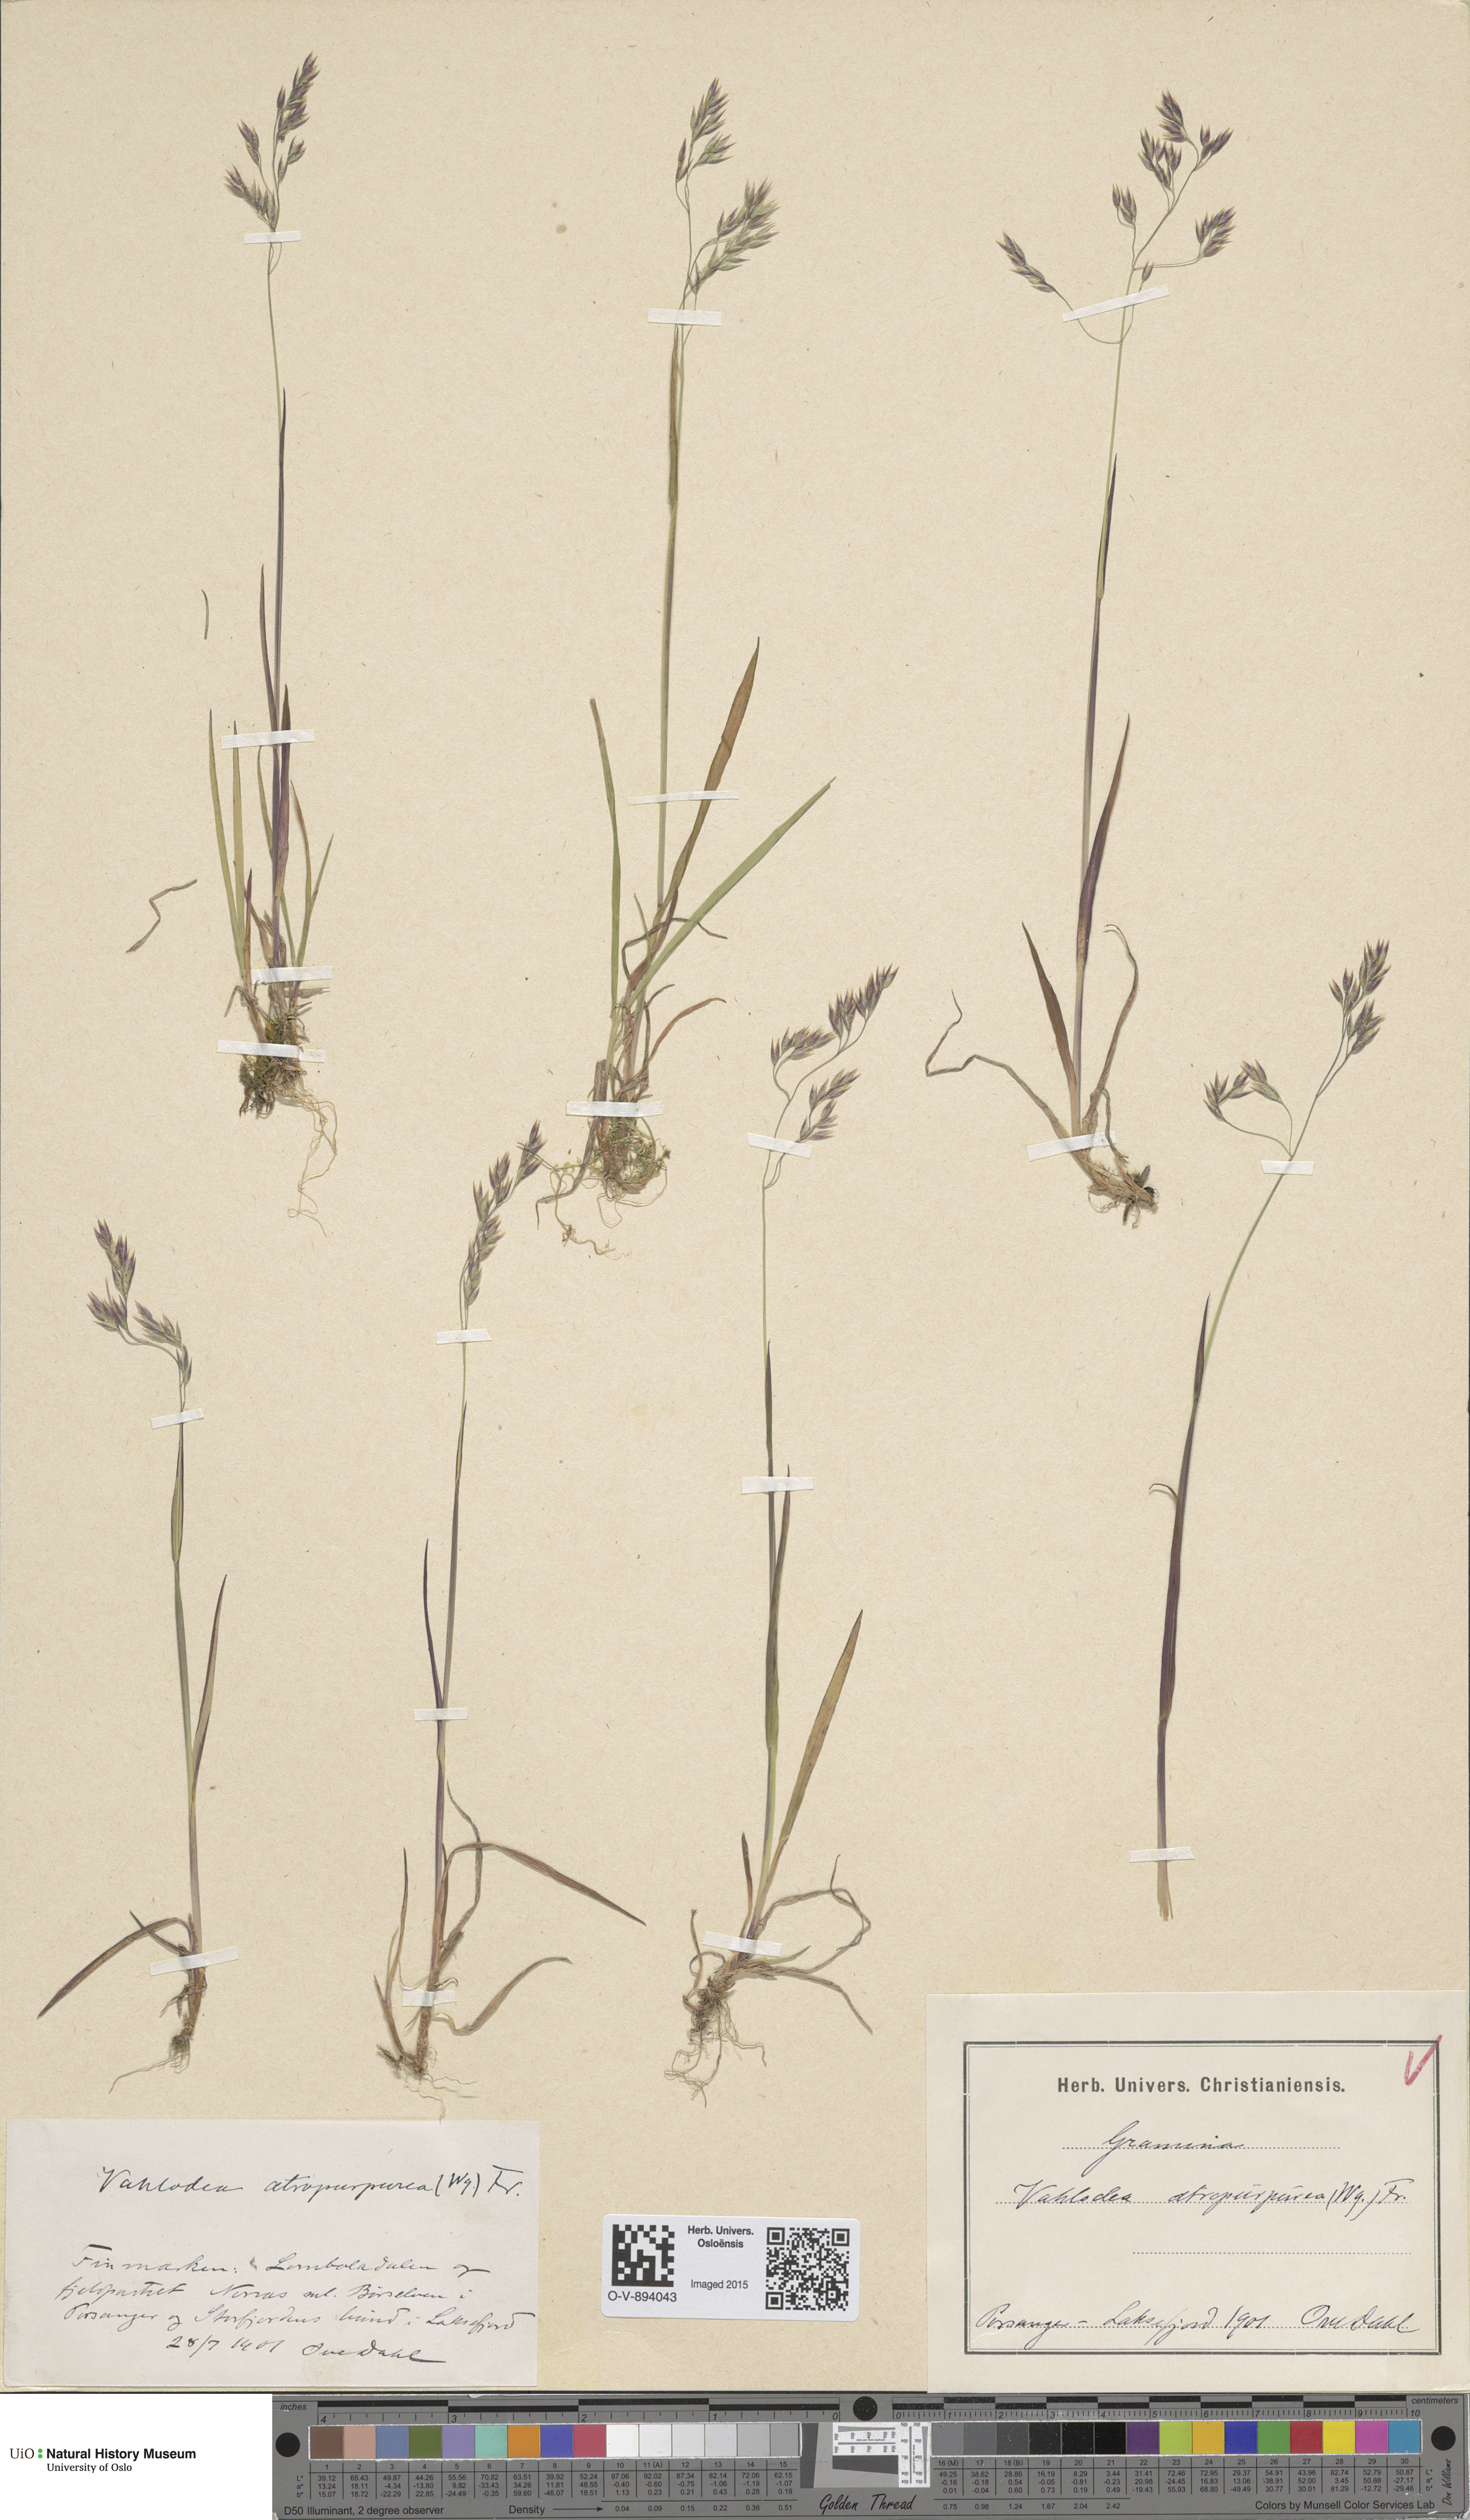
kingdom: Plantae
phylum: Tracheophyta
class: Liliopsida
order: Poales
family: Poaceae
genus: Vahlodea
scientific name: Vahlodea atropurpurea
